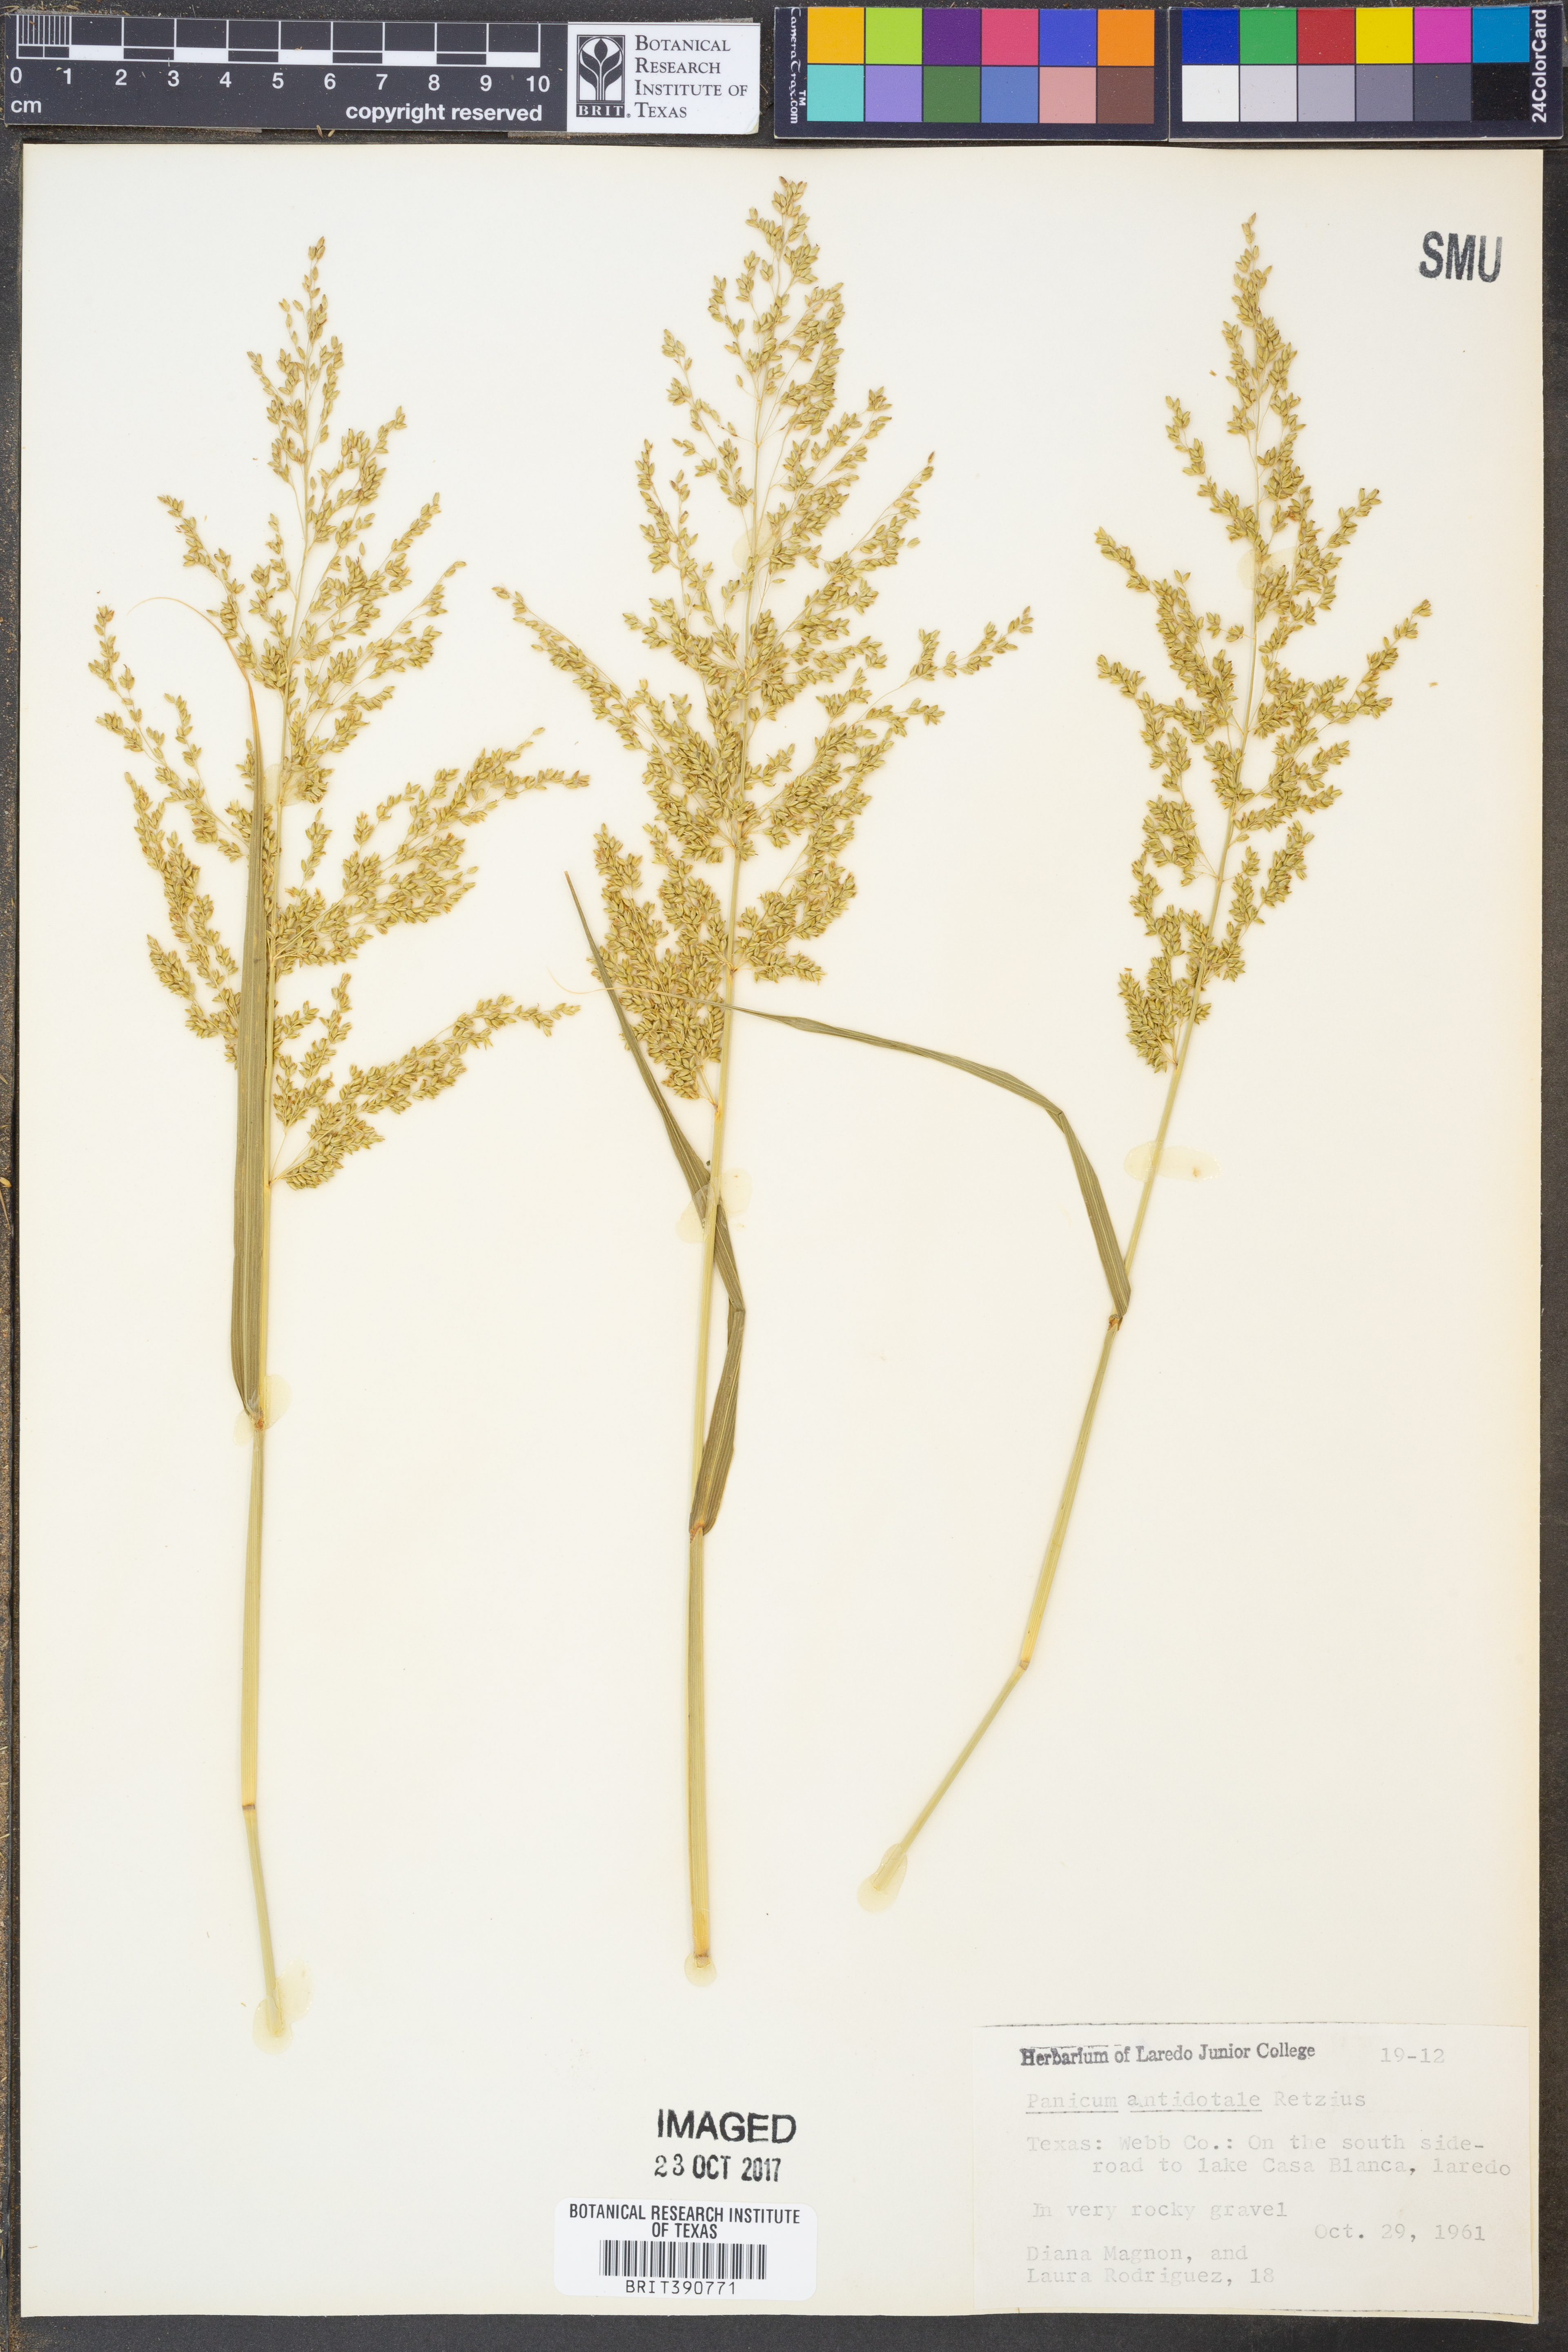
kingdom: Plantae
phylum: Tracheophyta
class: Liliopsida
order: Poales
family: Poaceae
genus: Panicum
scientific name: Panicum antidotale
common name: Blue panicum
